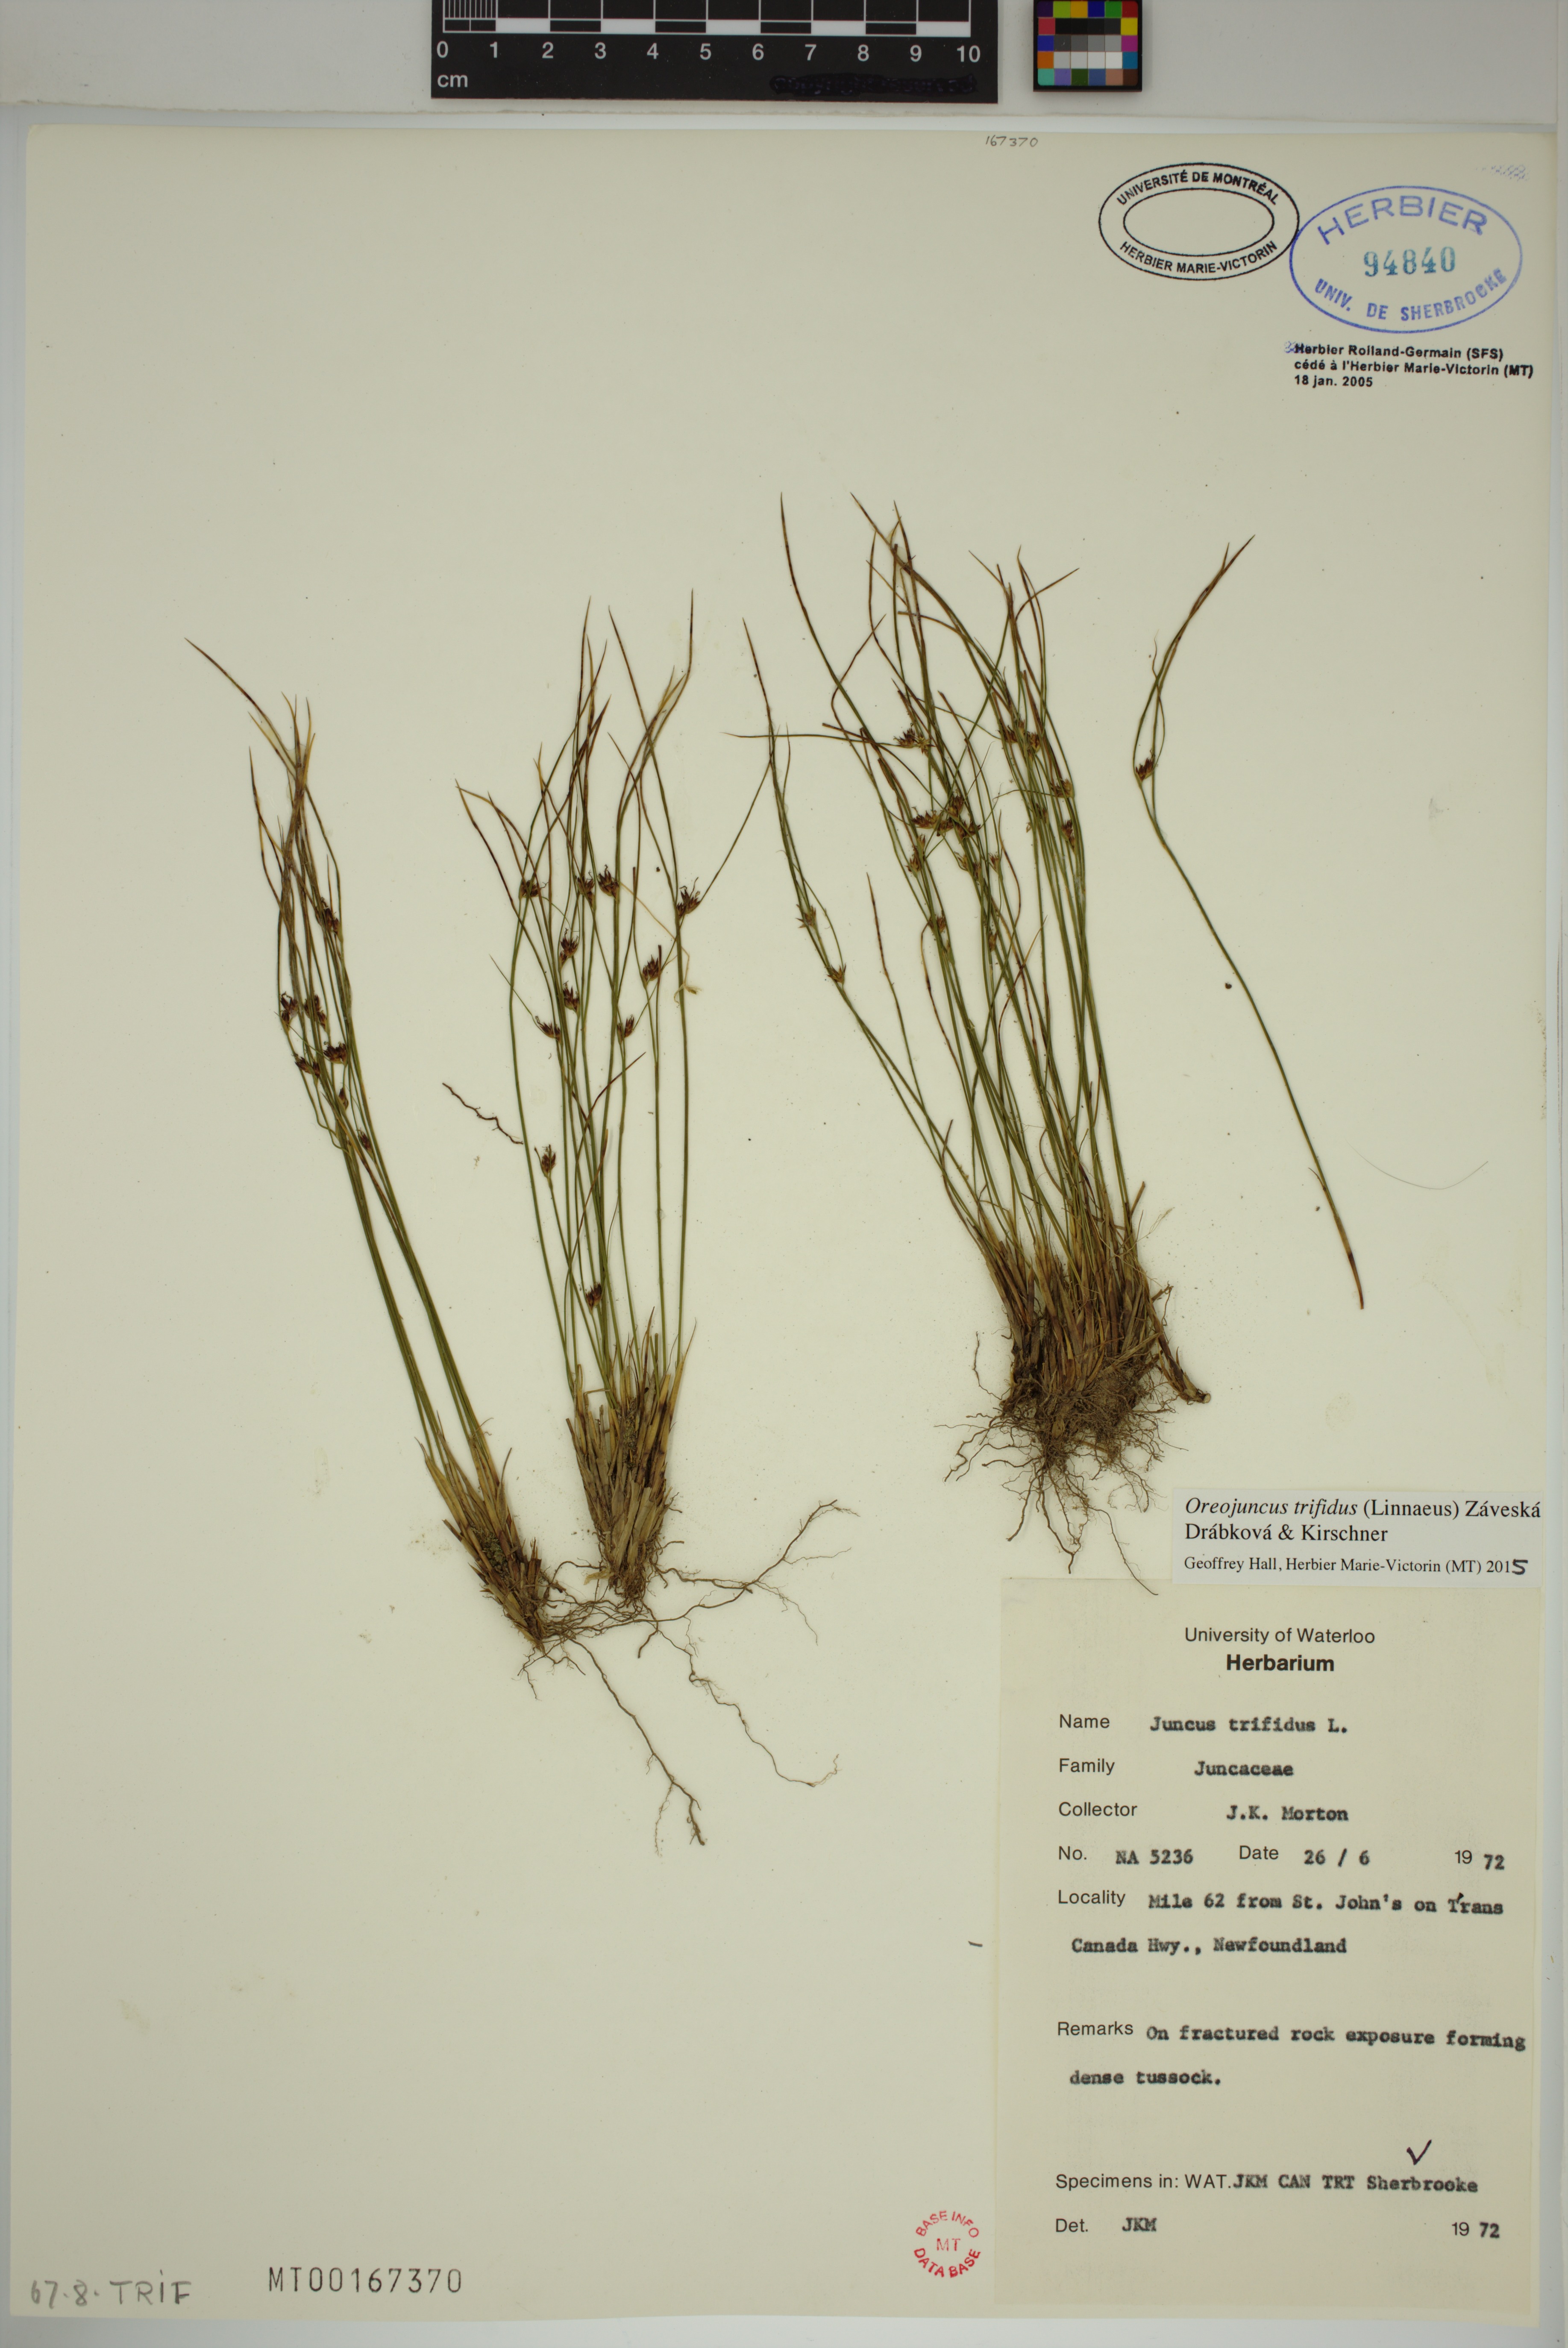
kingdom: Plantae
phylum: Tracheophyta
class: Liliopsida
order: Poales
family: Juncaceae
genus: Oreojuncus
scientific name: Oreojuncus trifidus
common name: Highland rush
